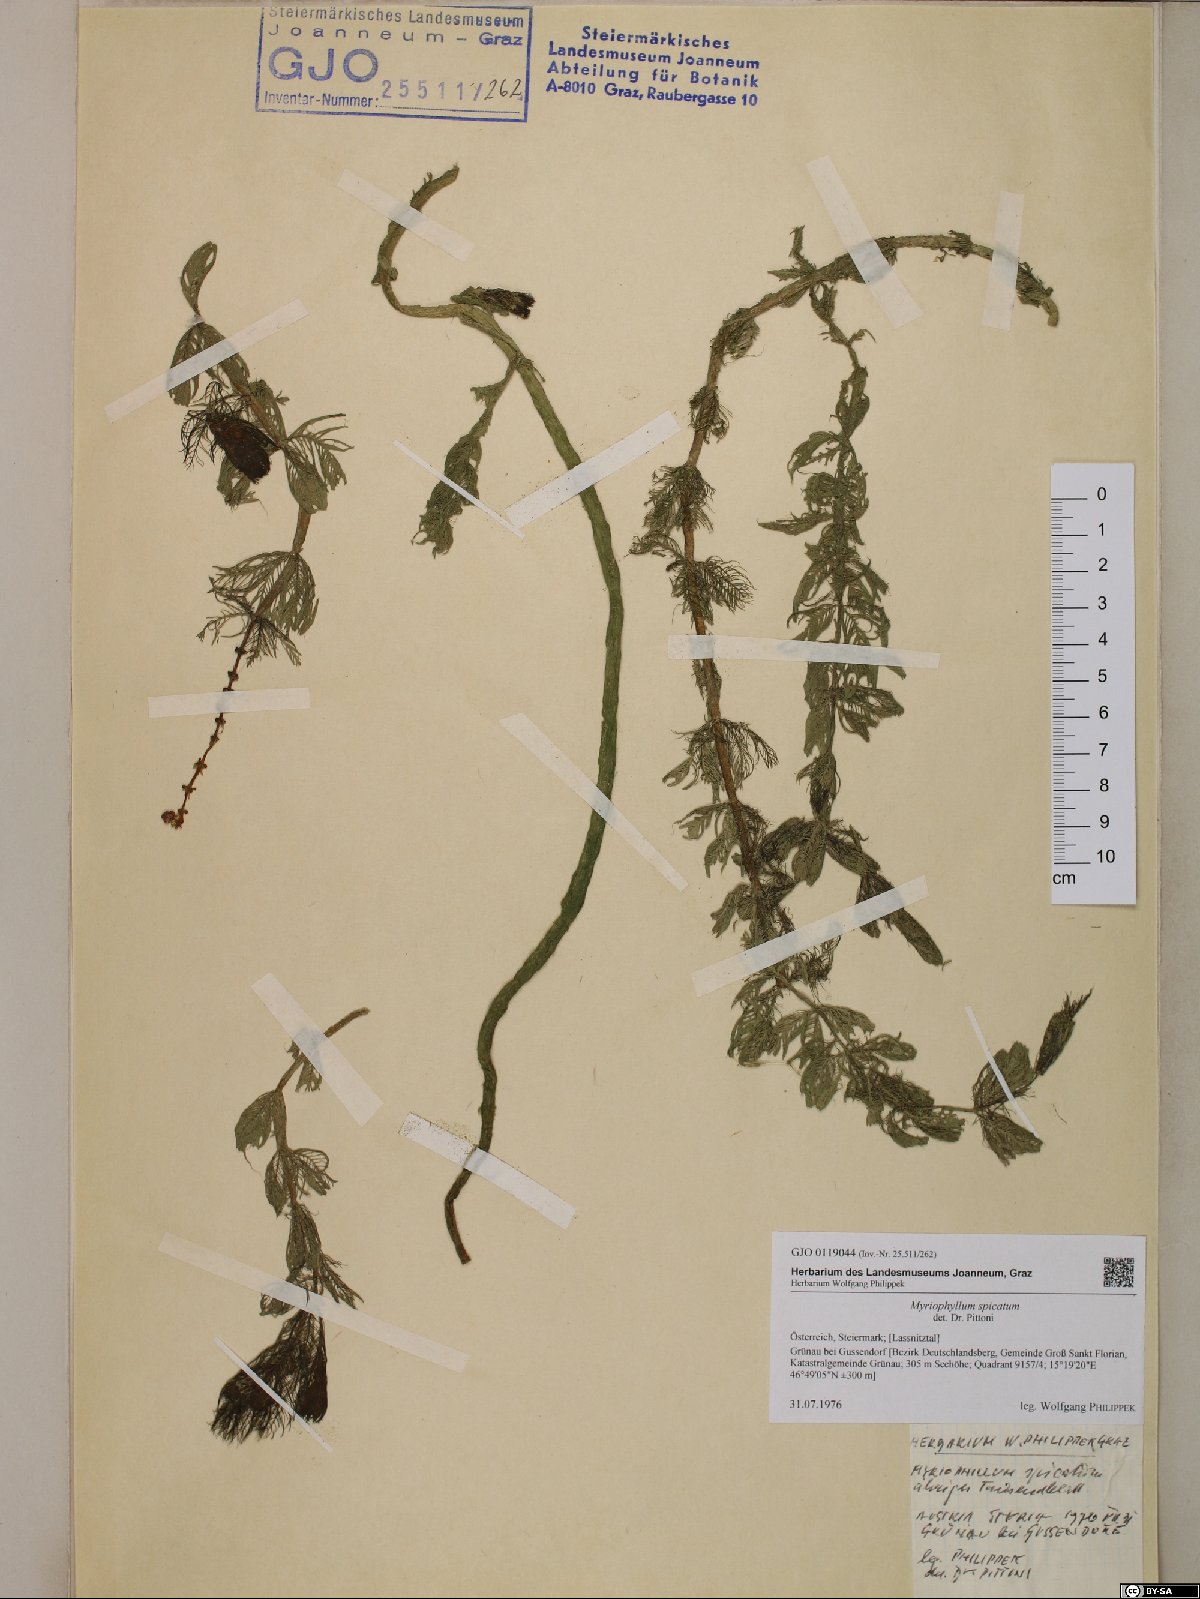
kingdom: Plantae
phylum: Tracheophyta
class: Magnoliopsida
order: Saxifragales
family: Haloragaceae
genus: Myriophyllum
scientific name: Myriophyllum spicatum
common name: Spiked water-milfoil
